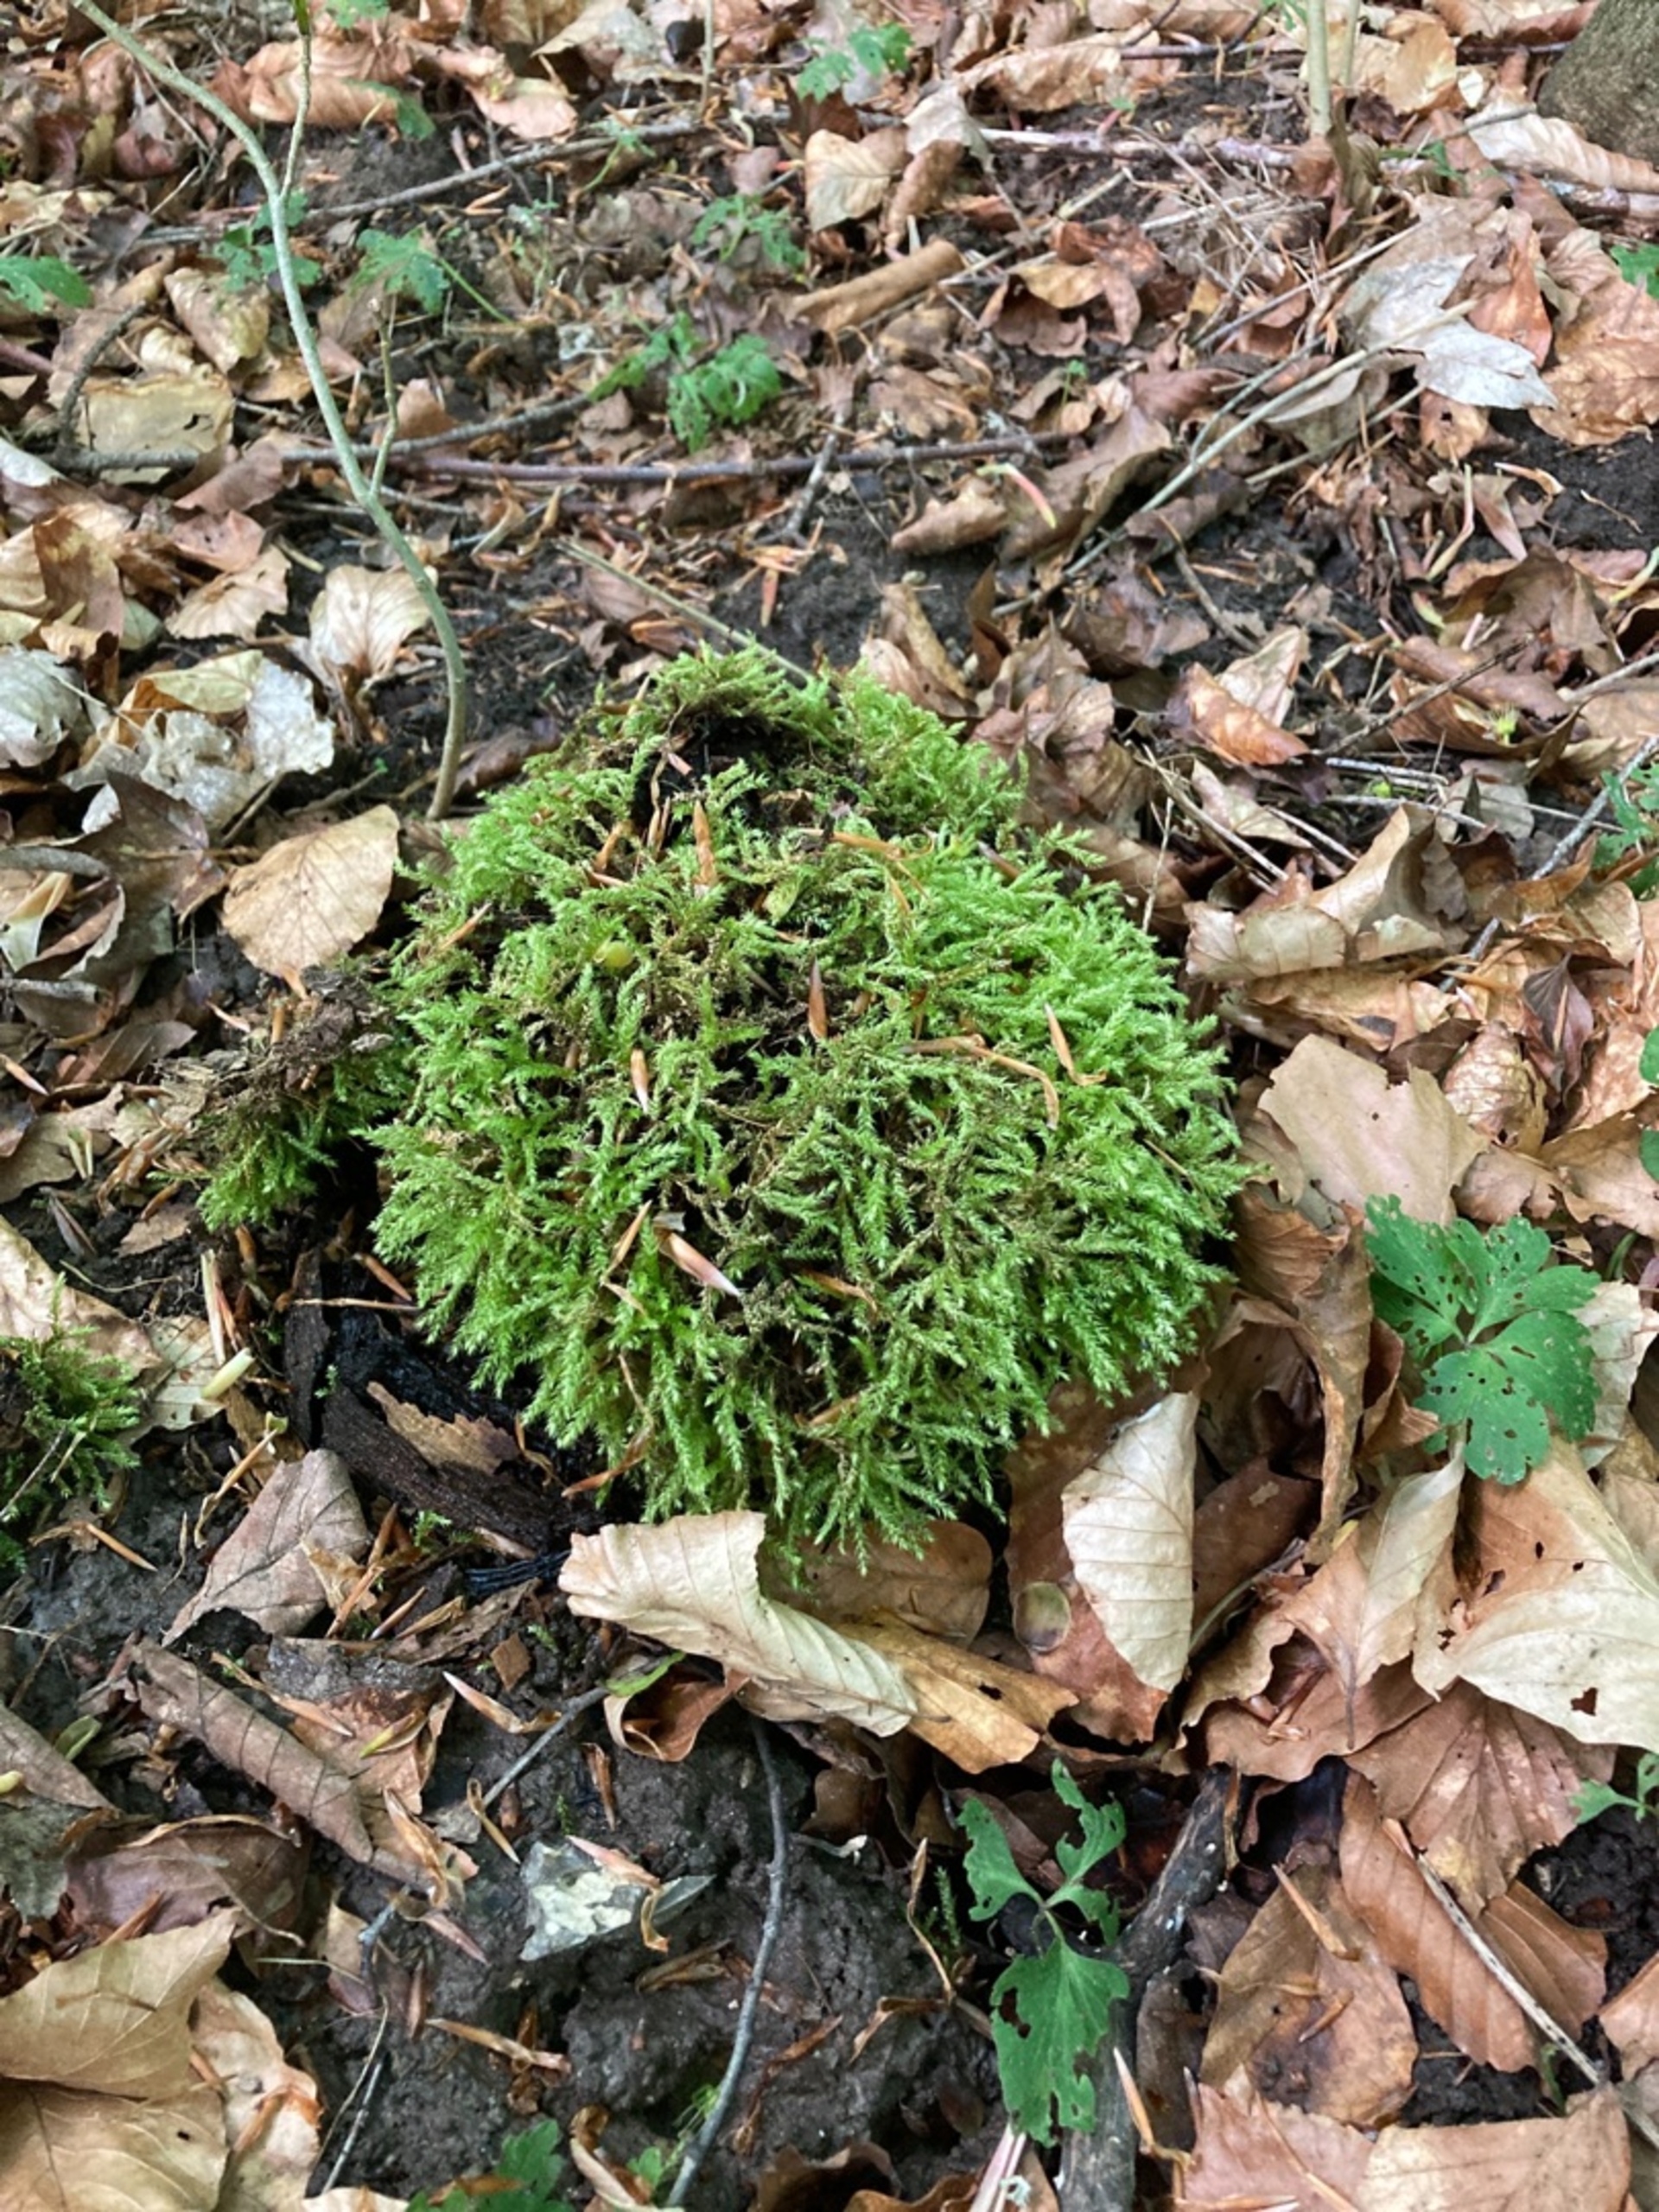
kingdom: Plantae
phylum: Bryophyta
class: Bryopsida
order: Hypnales
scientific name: Hypnales
